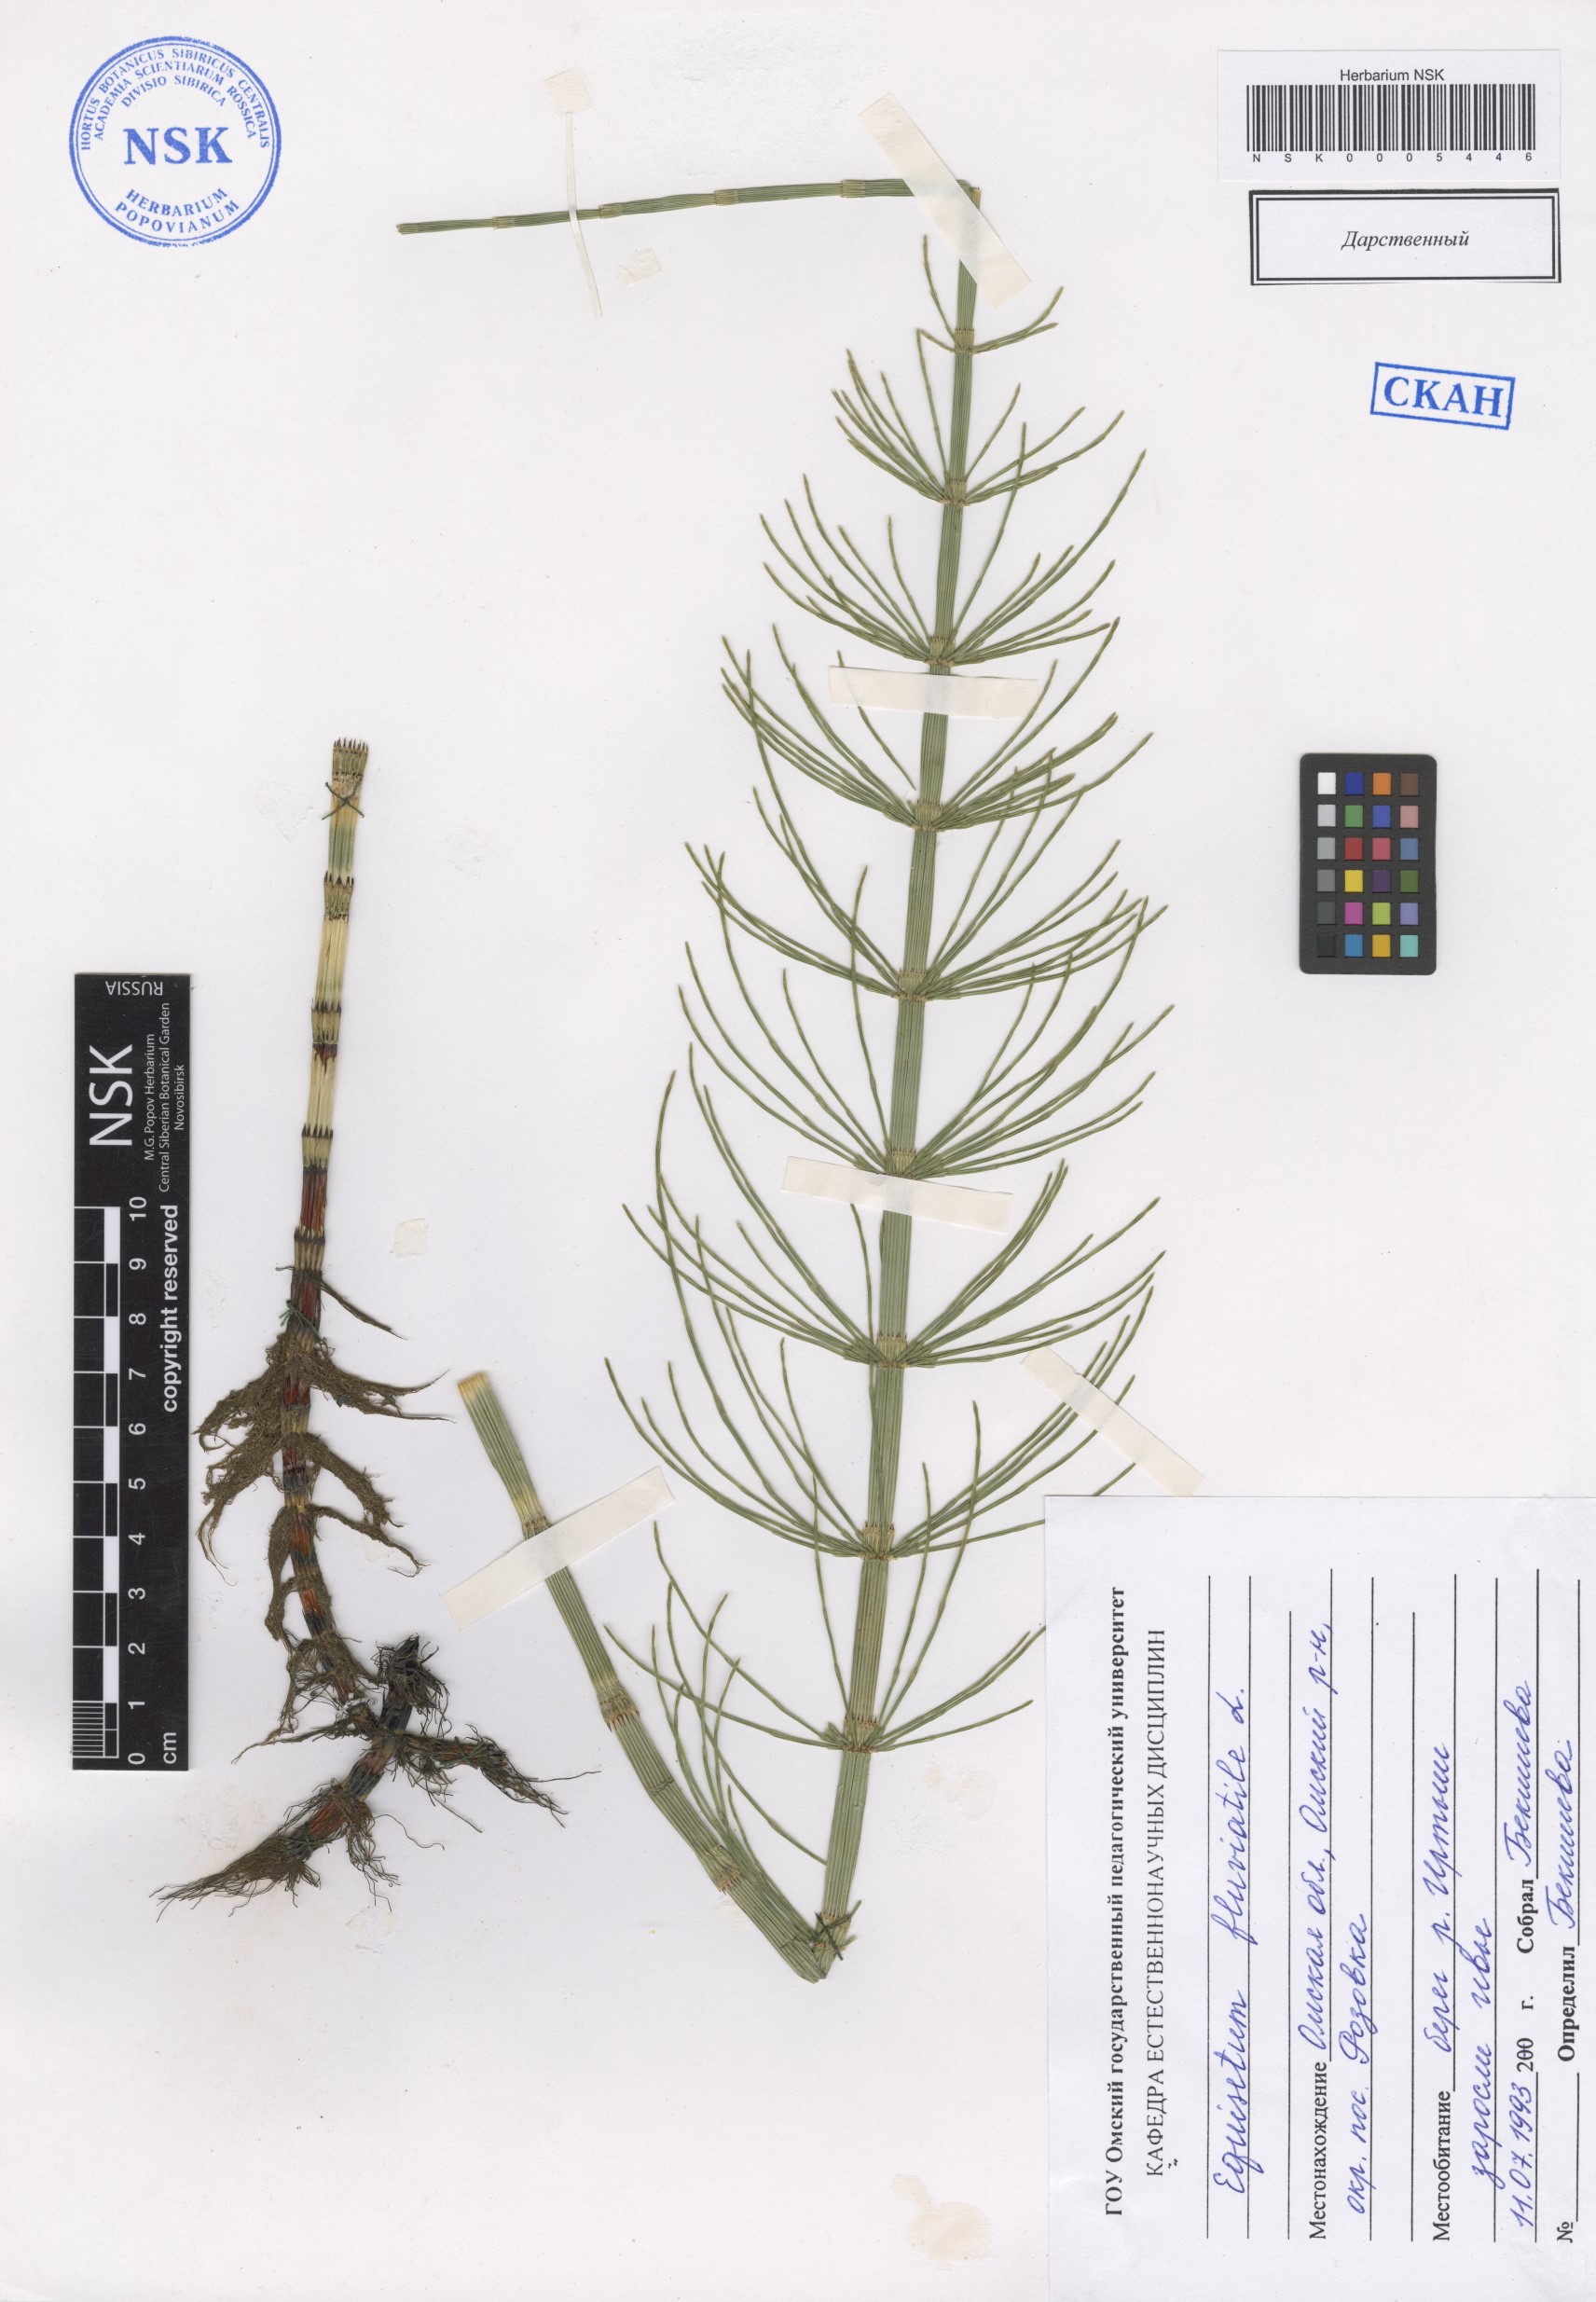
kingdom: Plantae
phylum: Tracheophyta
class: Polypodiopsida
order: Equisetales
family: Equisetaceae
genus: Equisetum
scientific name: Equisetum fluviatile
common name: Water horsetail
